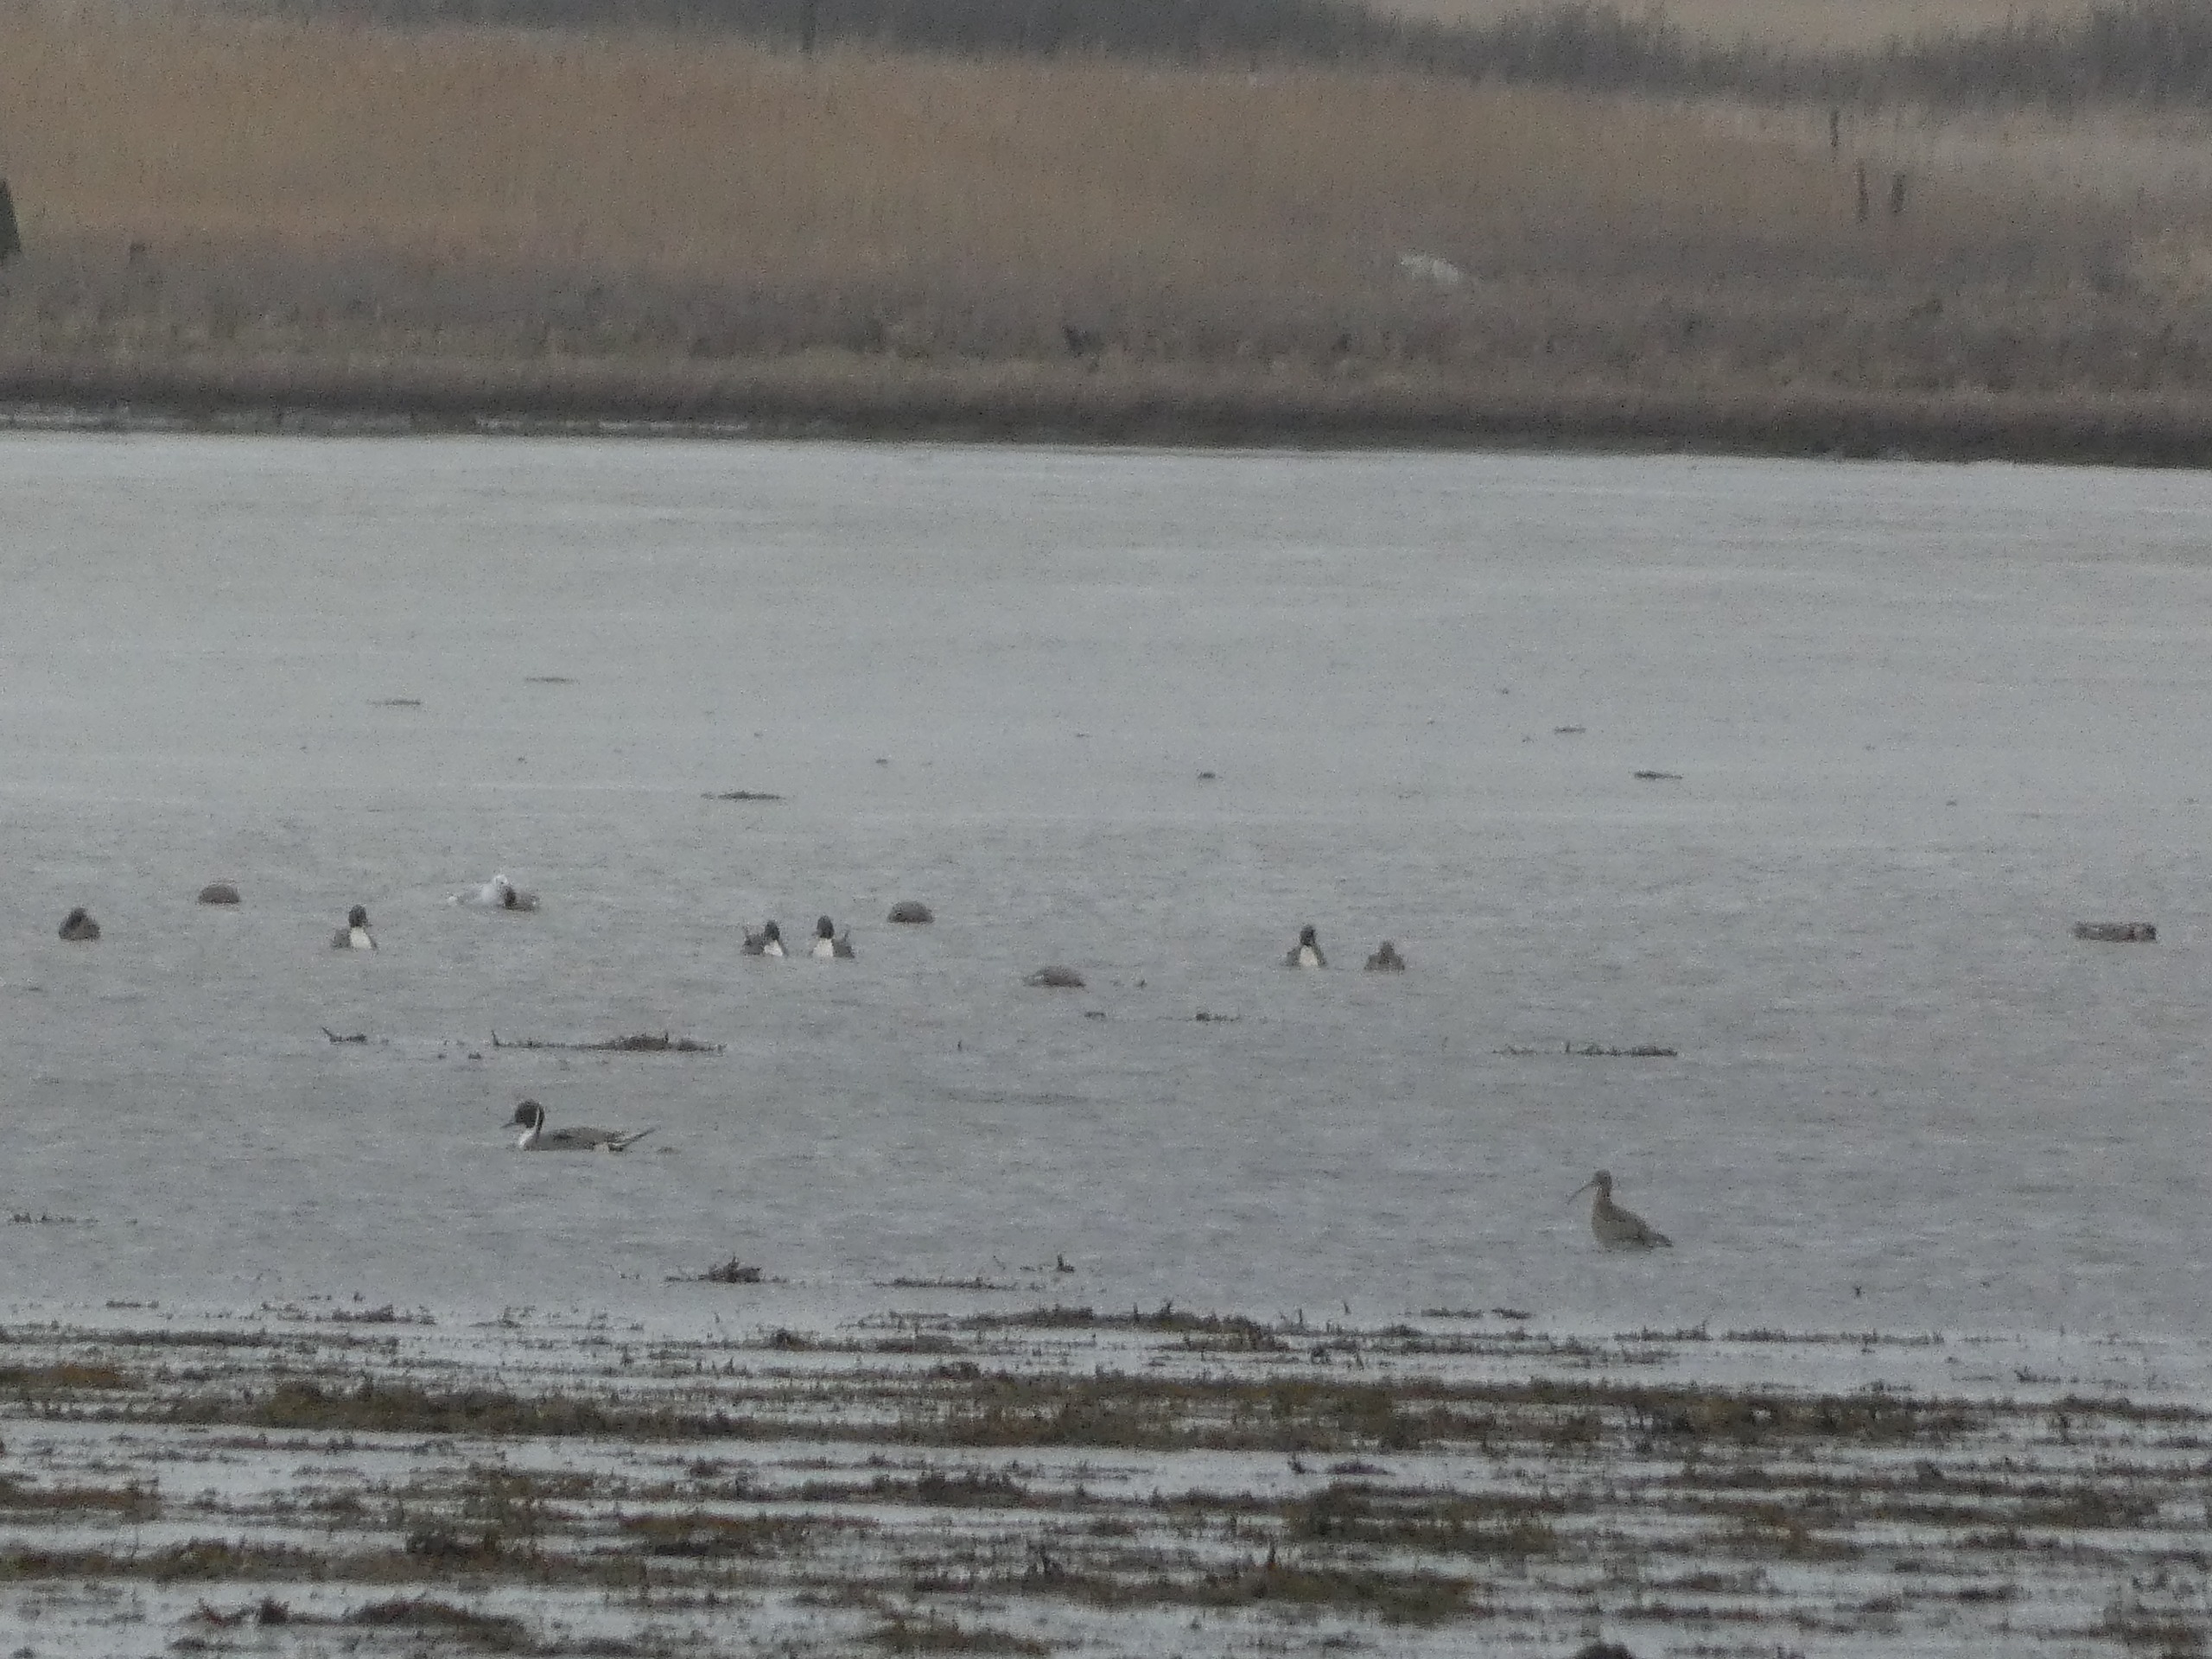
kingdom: Animalia
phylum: Chordata
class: Aves
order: Anseriformes
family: Anatidae
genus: Anas
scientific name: Anas acuta
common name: Spidsand
